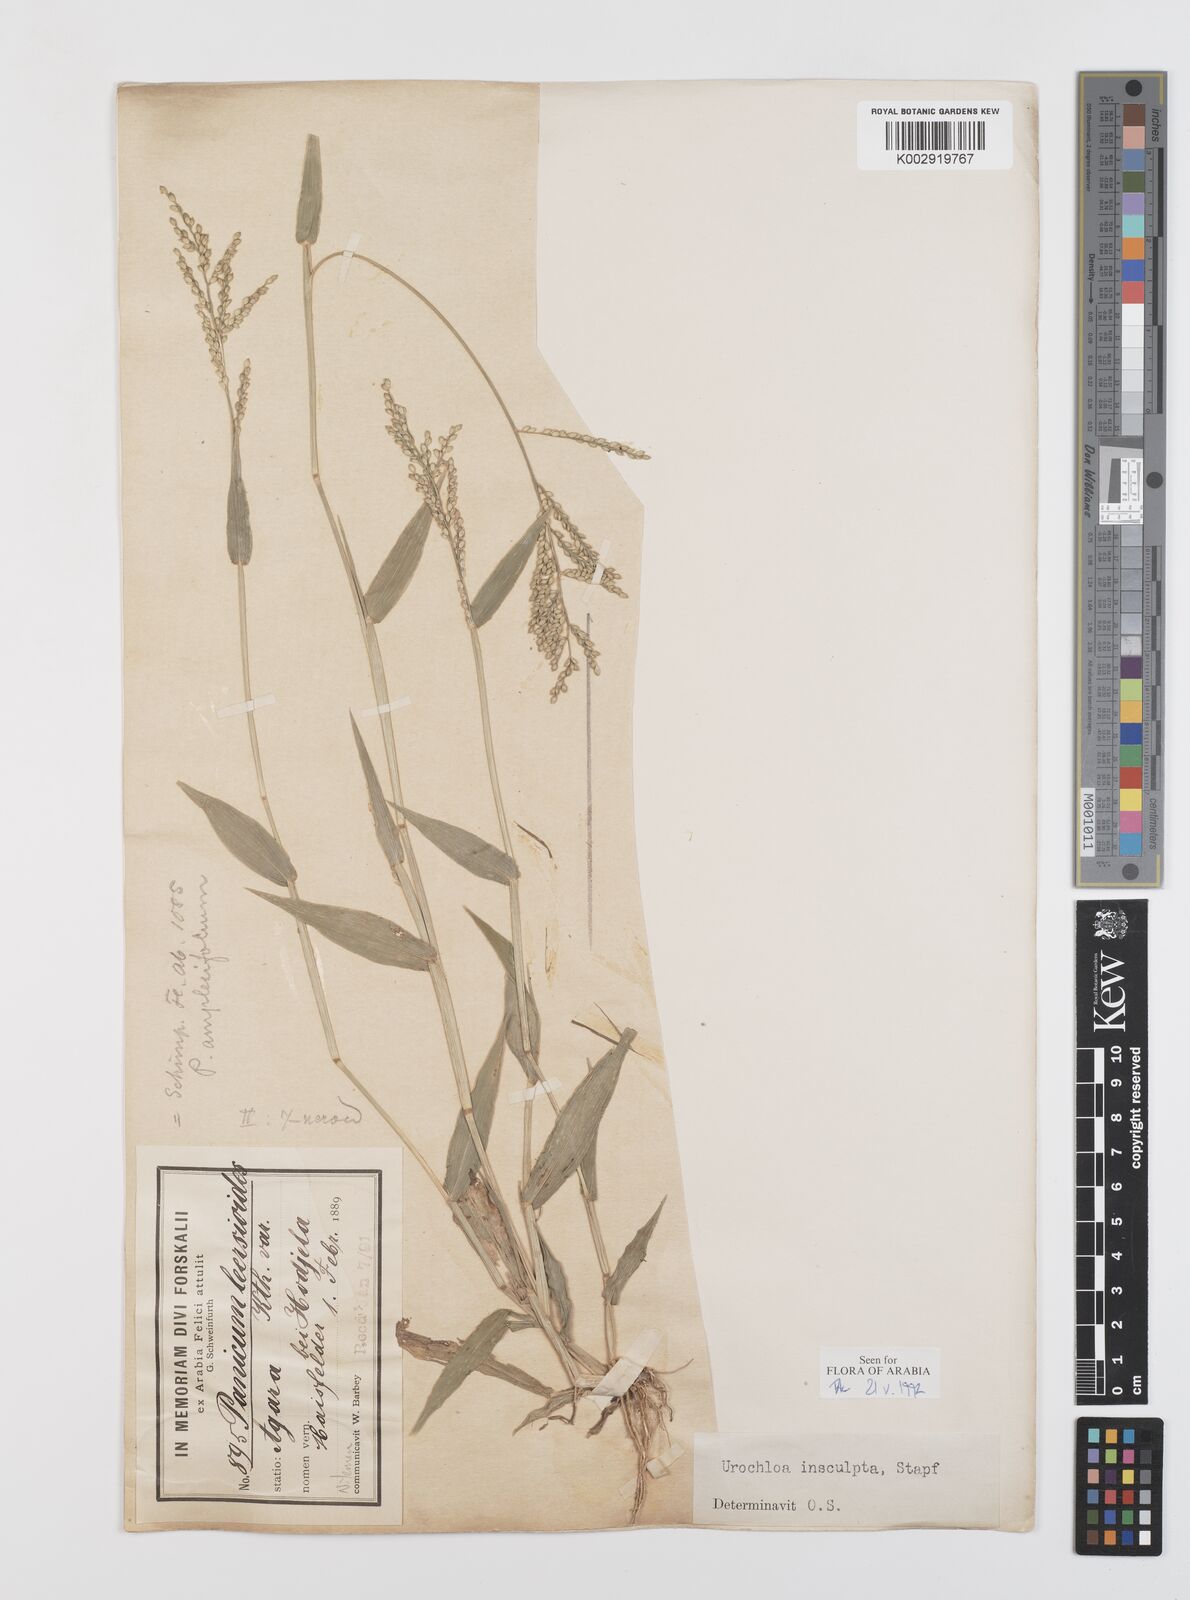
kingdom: Plantae
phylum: Tracheophyta
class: Liliopsida
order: Poales
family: Poaceae
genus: Urochloa
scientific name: Urochloa lata
